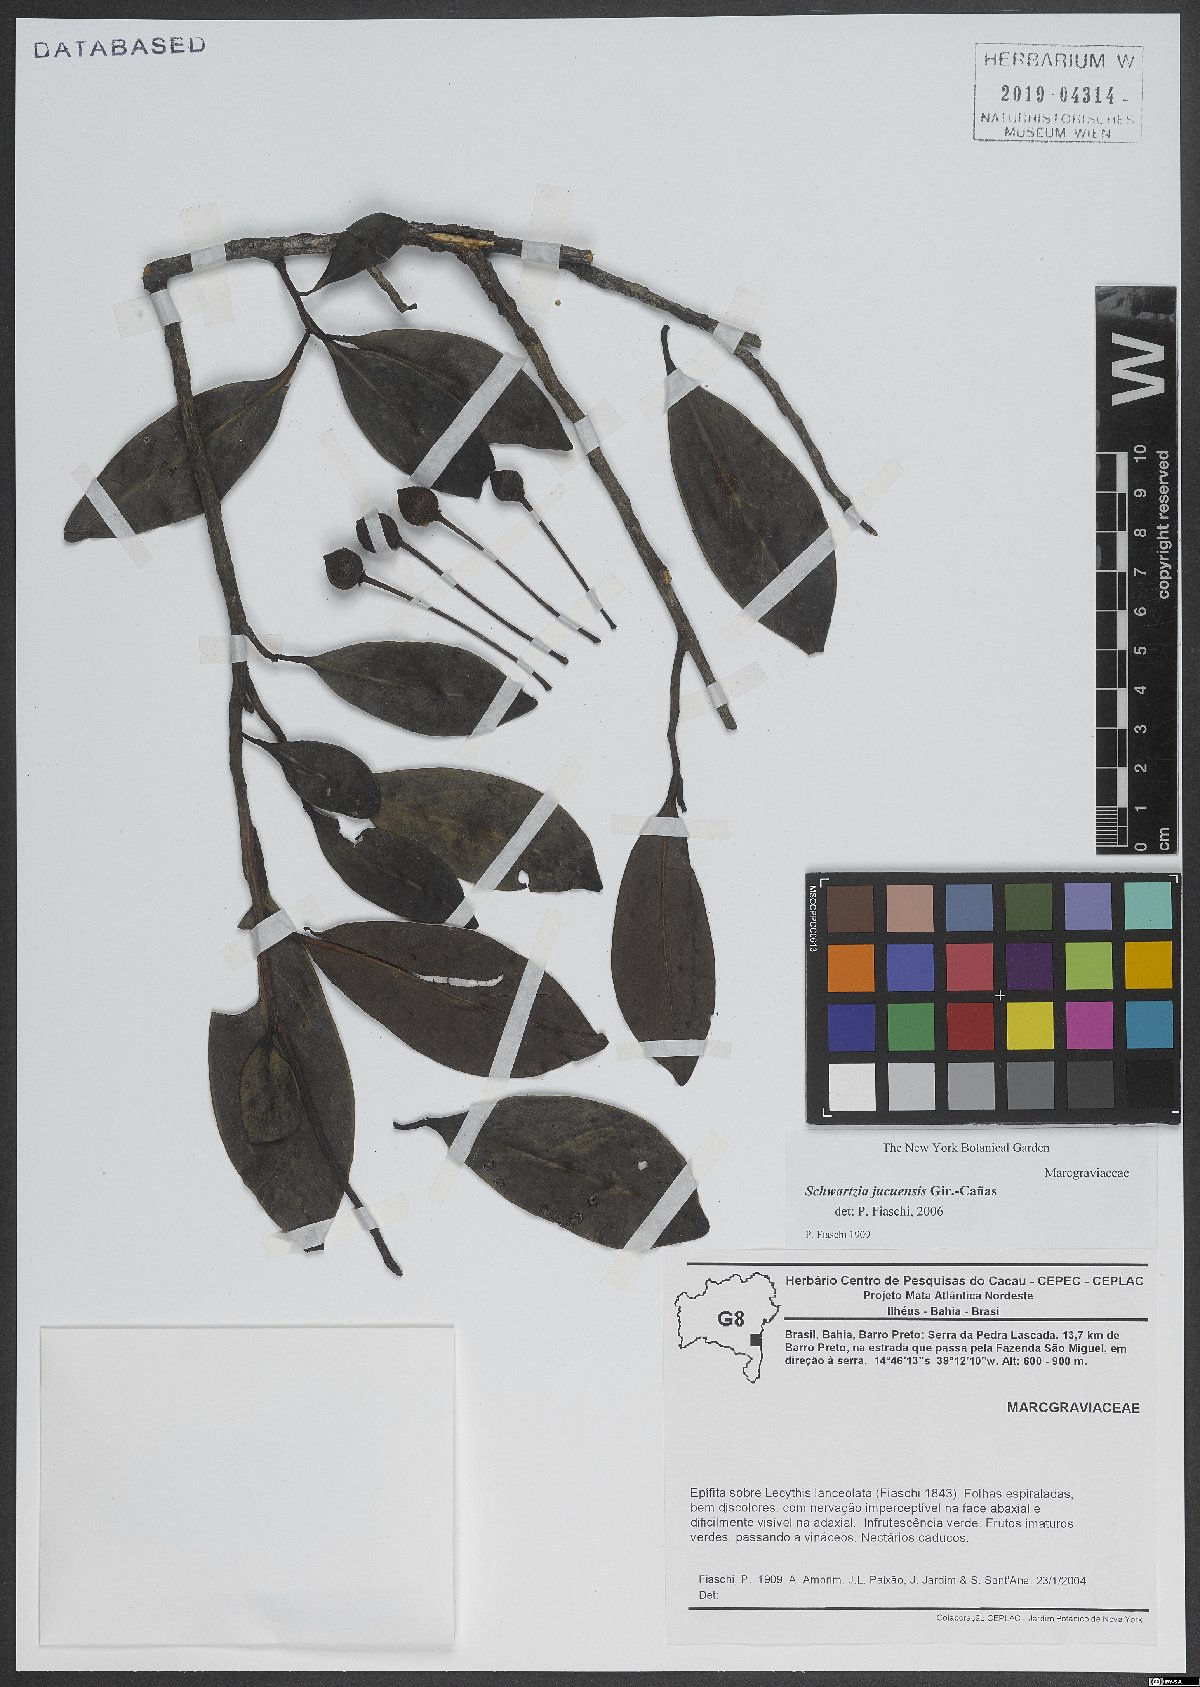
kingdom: Plantae
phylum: Tracheophyta
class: Magnoliopsida
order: Ericales
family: Marcgraviaceae
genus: Schwartzia
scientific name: Schwartzia jucuensis
